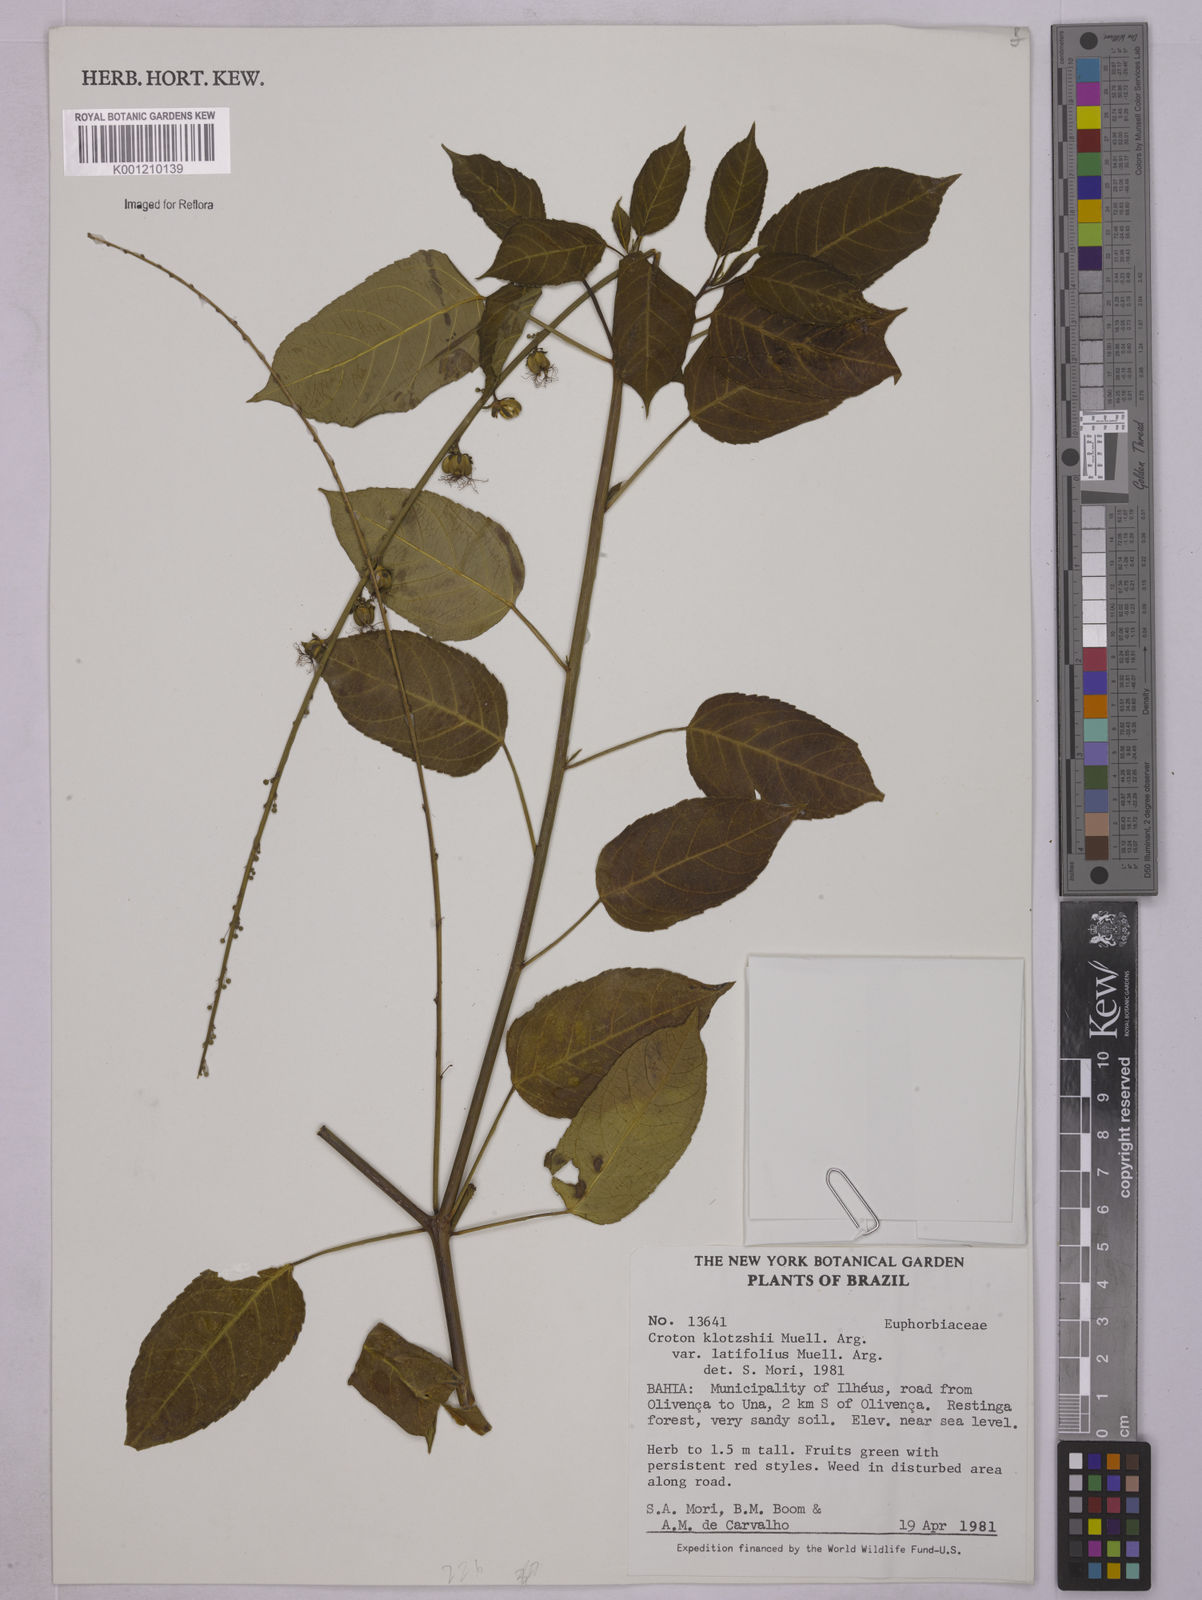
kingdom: Plantae
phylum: Tracheophyta
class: Magnoliopsida
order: Malpighiales
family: Euphorbiaceae
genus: Astraea
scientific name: Astraea macroura
